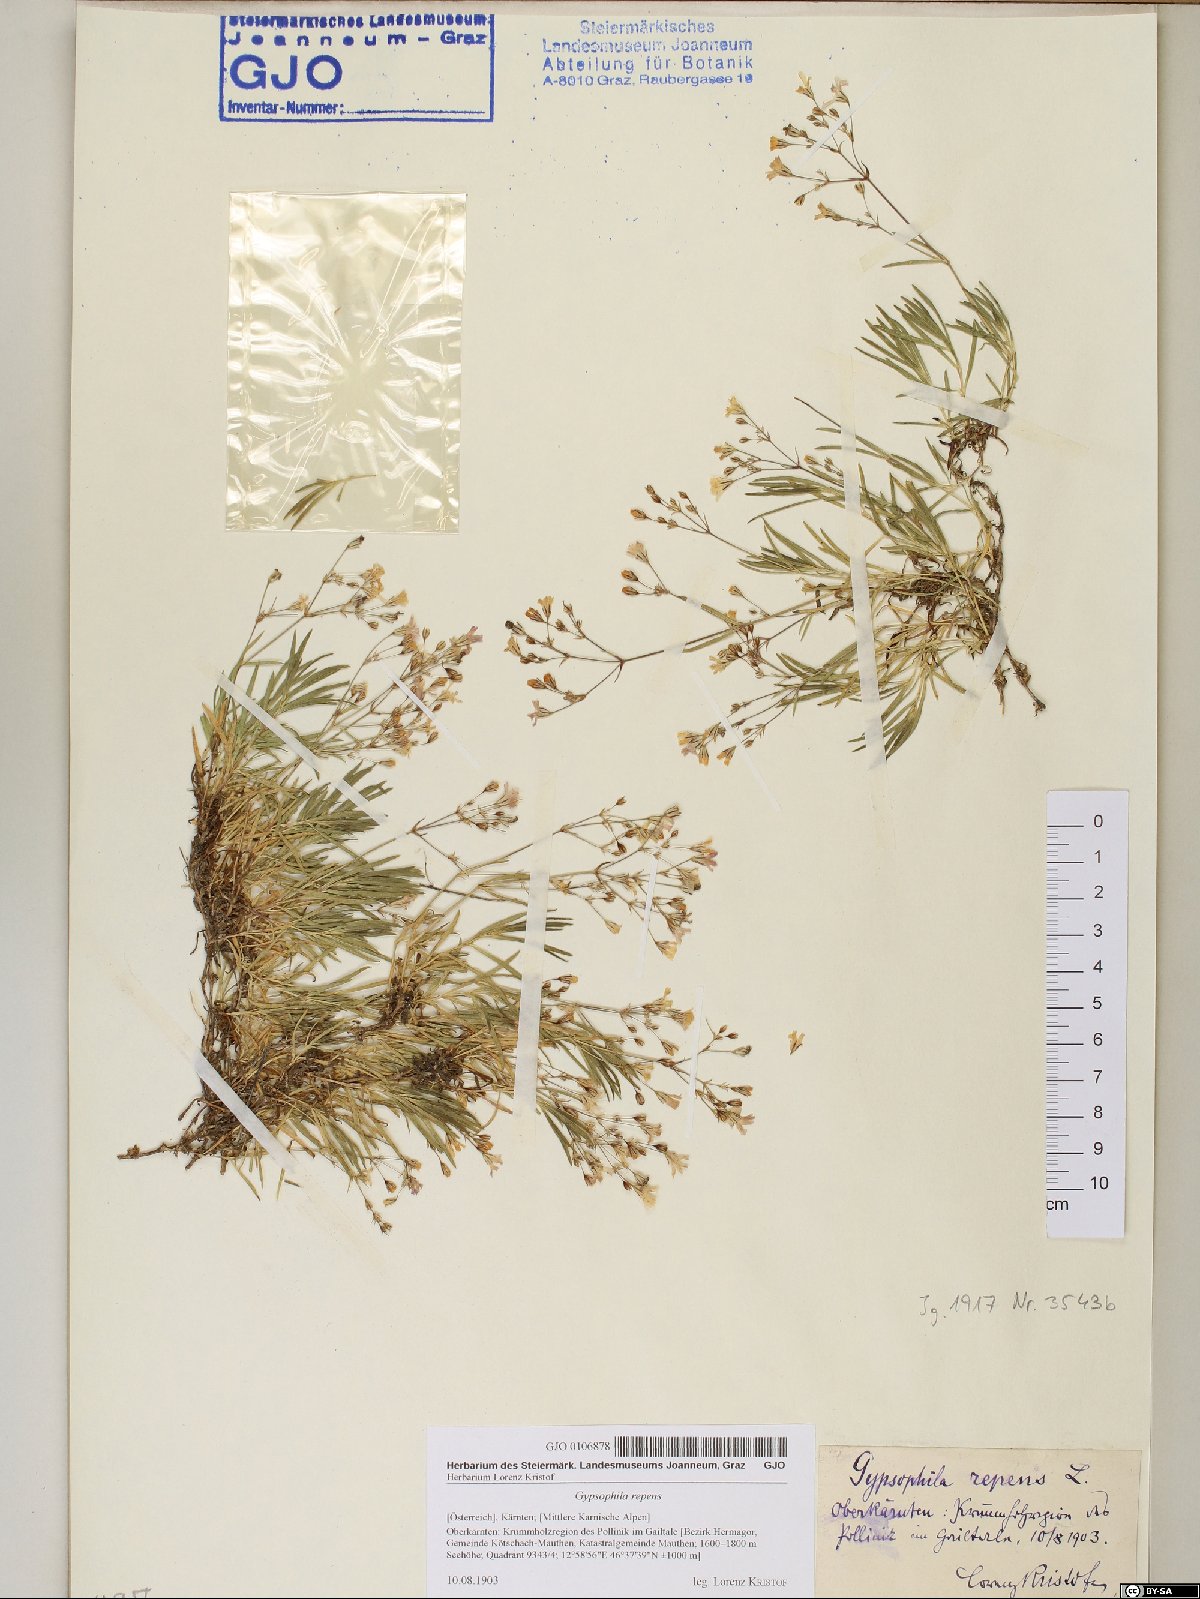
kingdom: Plantae
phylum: Tracheophyta
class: Magnoliopsida
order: Caryophyllales
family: Caryophyllaceae
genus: Gypsophila
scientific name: Gypsophila repens
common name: Creeping baby's-breath
